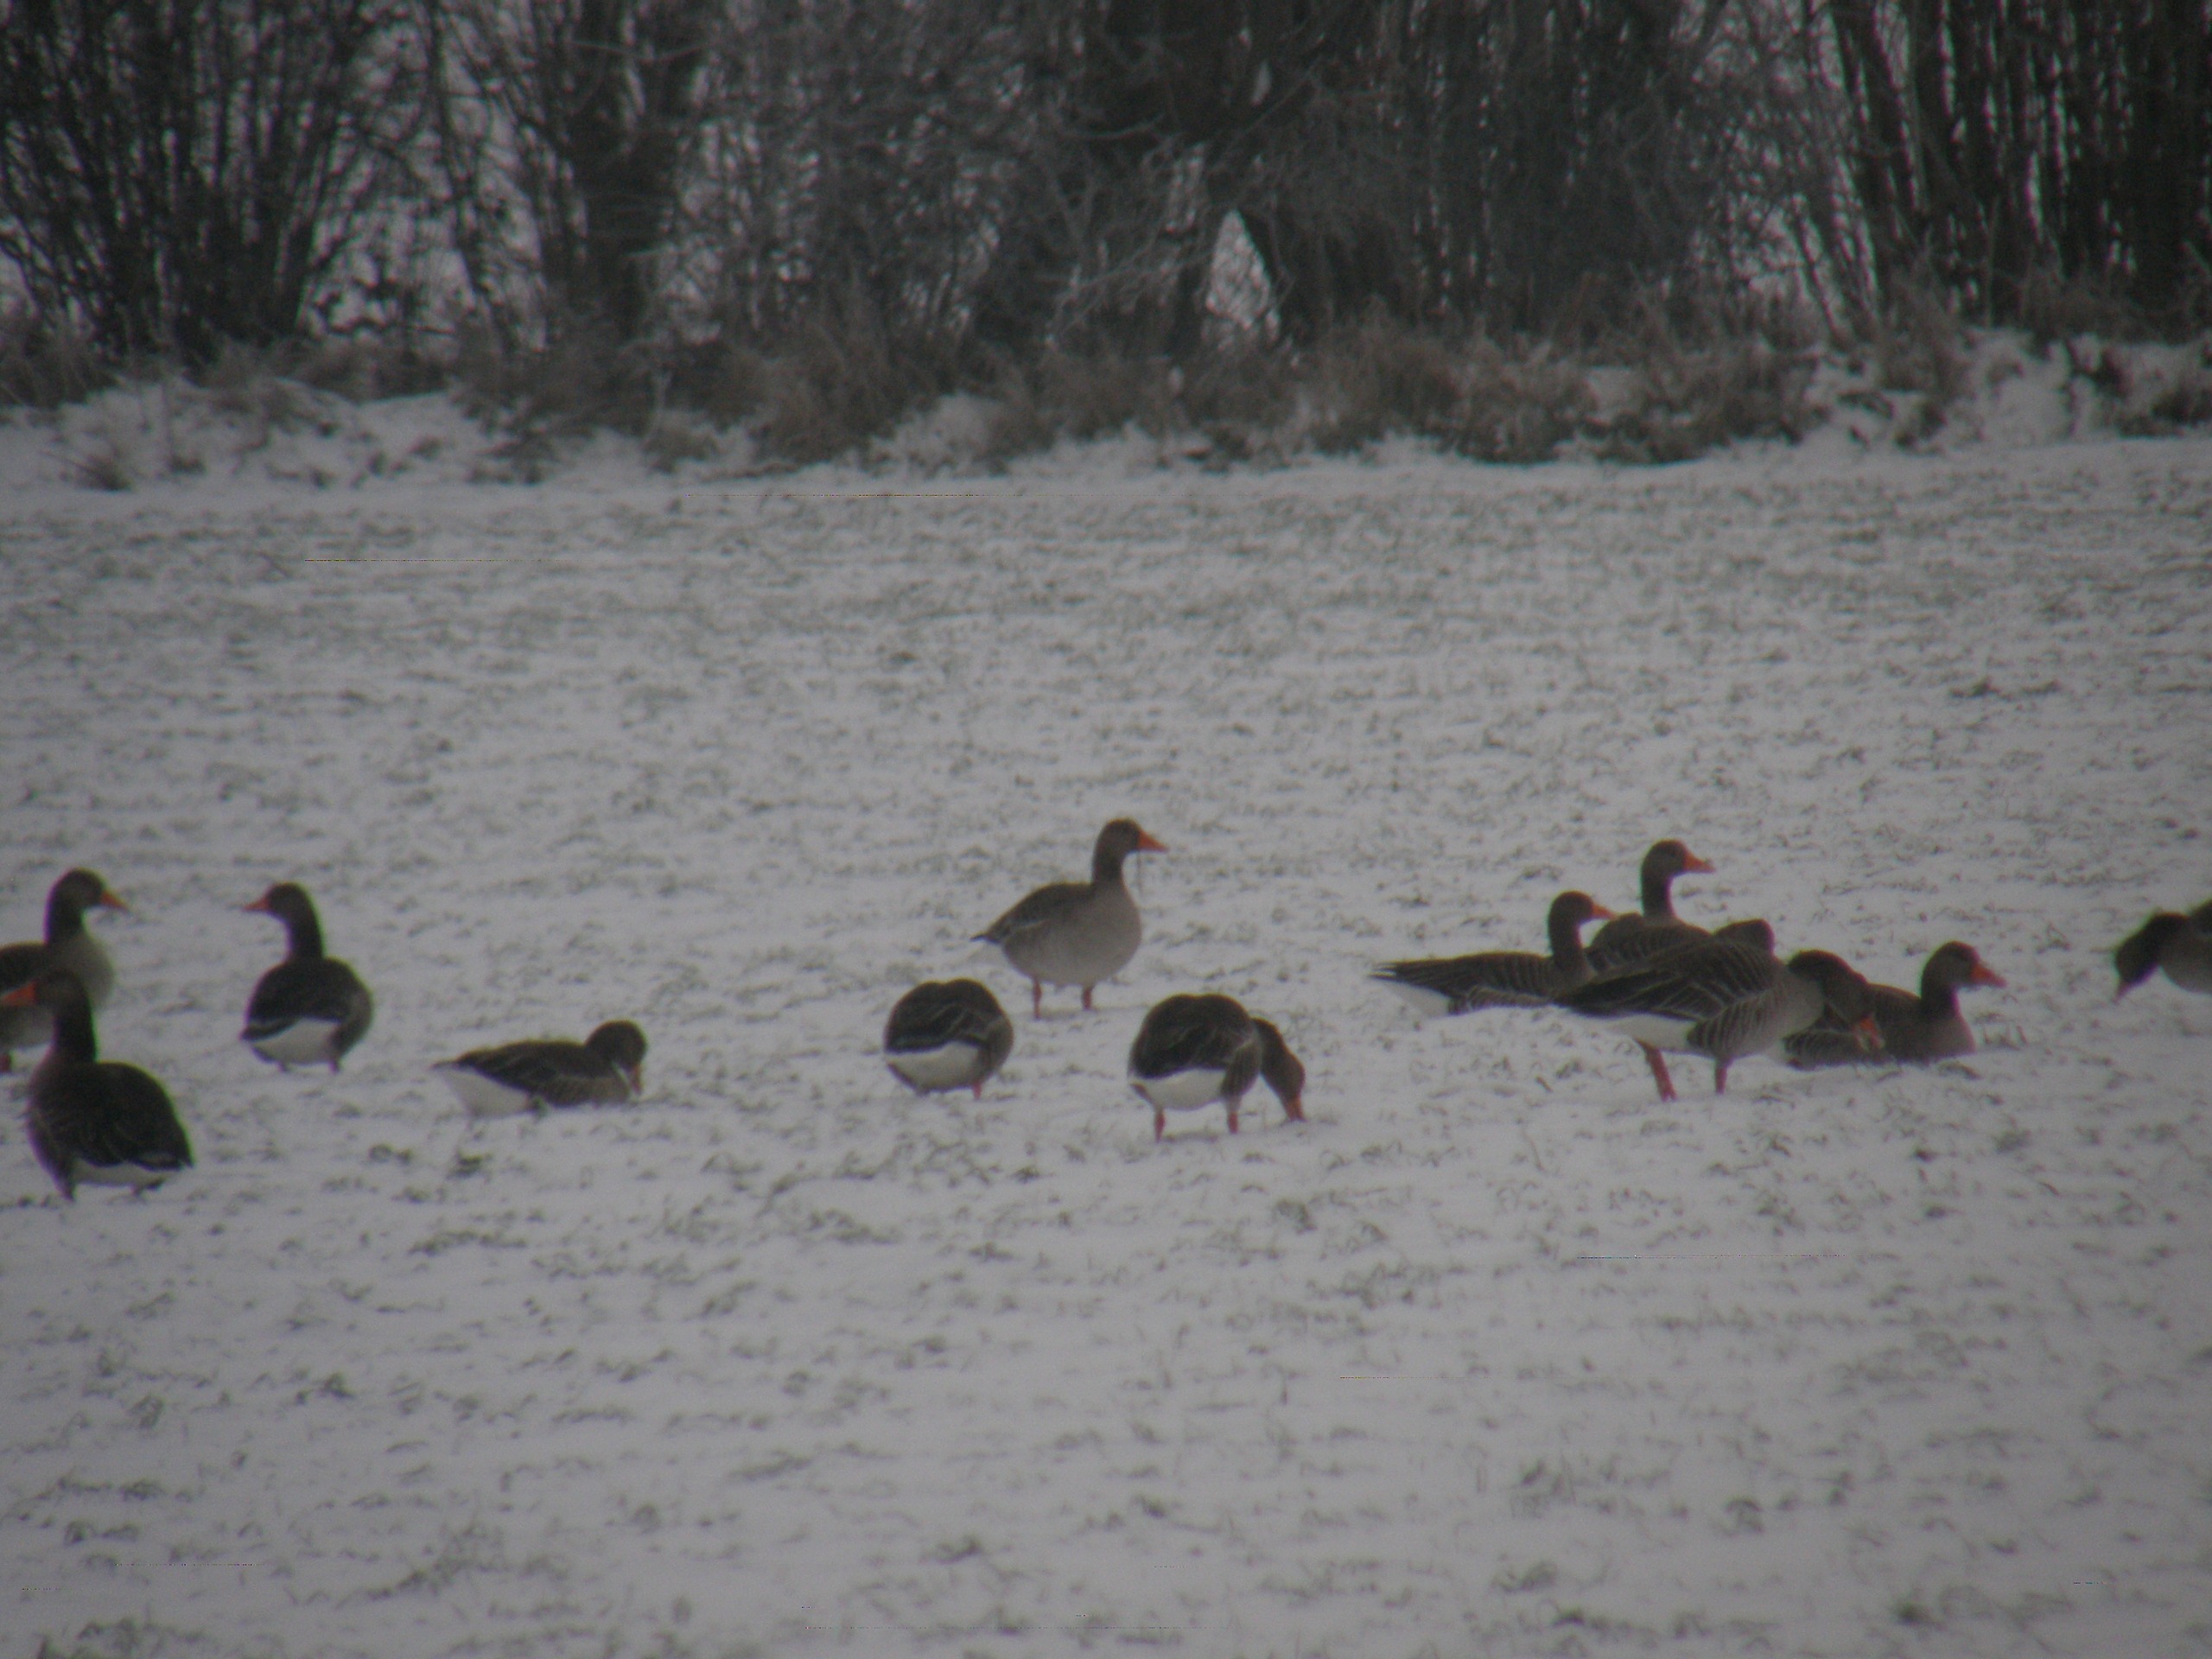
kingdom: Animalia
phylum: Chordata
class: Aves
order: Anseriformes
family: Anatidae
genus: Anser
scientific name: Anser anser
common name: Grågås
